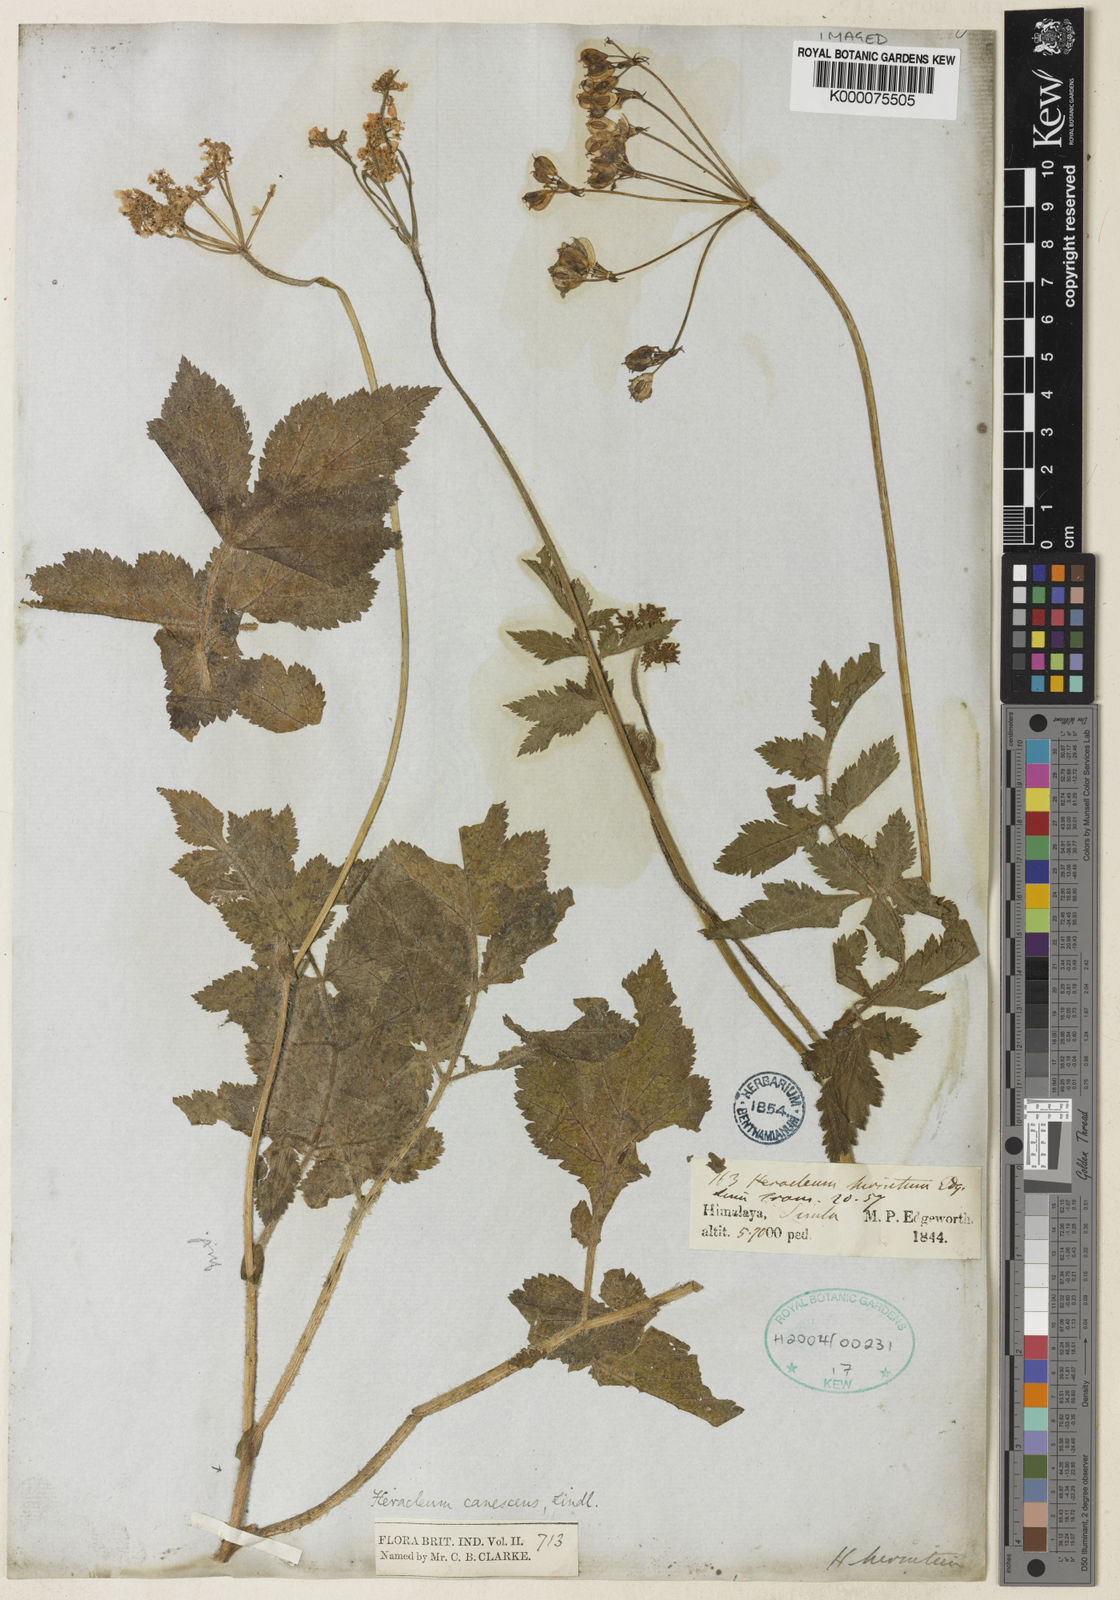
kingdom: Plantae
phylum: Tracheophyta
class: Magnoliopsida
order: Apiales
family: Apiaceae
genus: Tetrataenium
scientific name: Tetrataenium canescens
